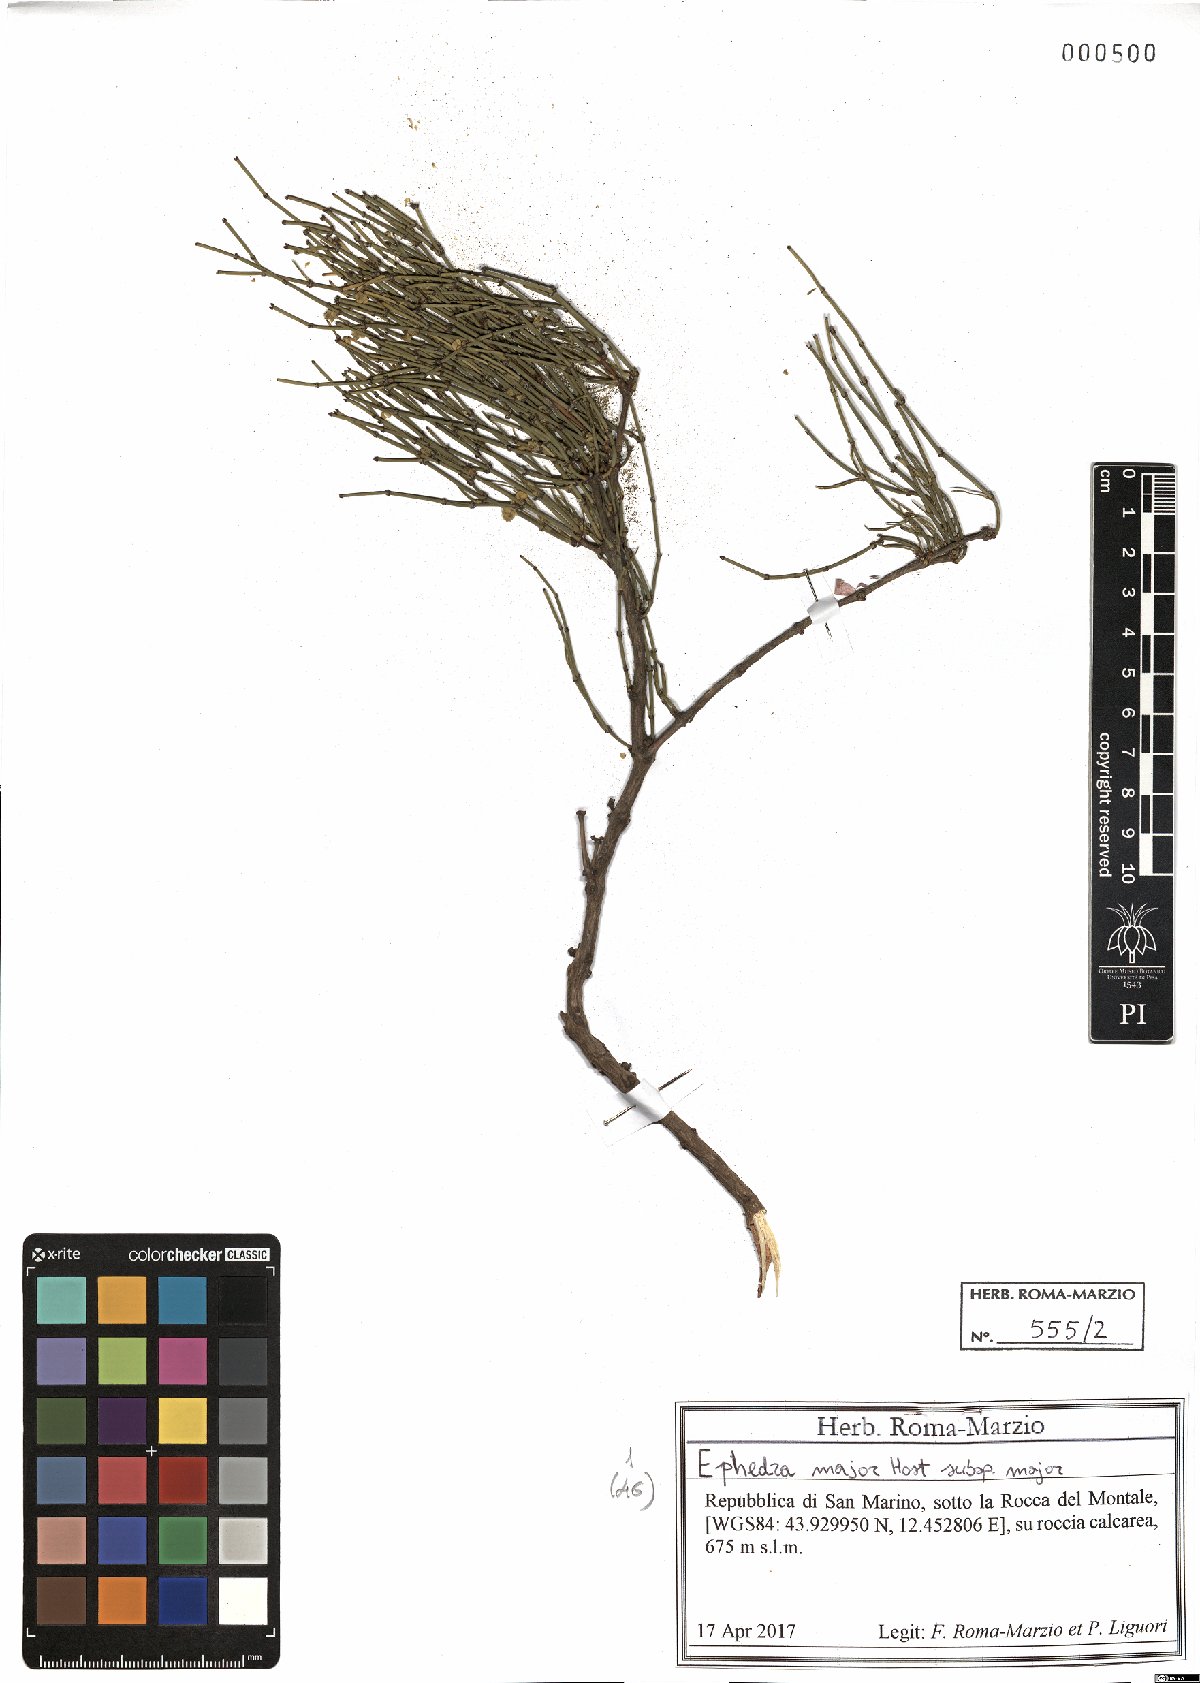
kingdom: Plantae
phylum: Tracheophyta
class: Gnetopsida
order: Ephedrales
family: Ephedraceae
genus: Ephedra
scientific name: Ephedra foeminea
